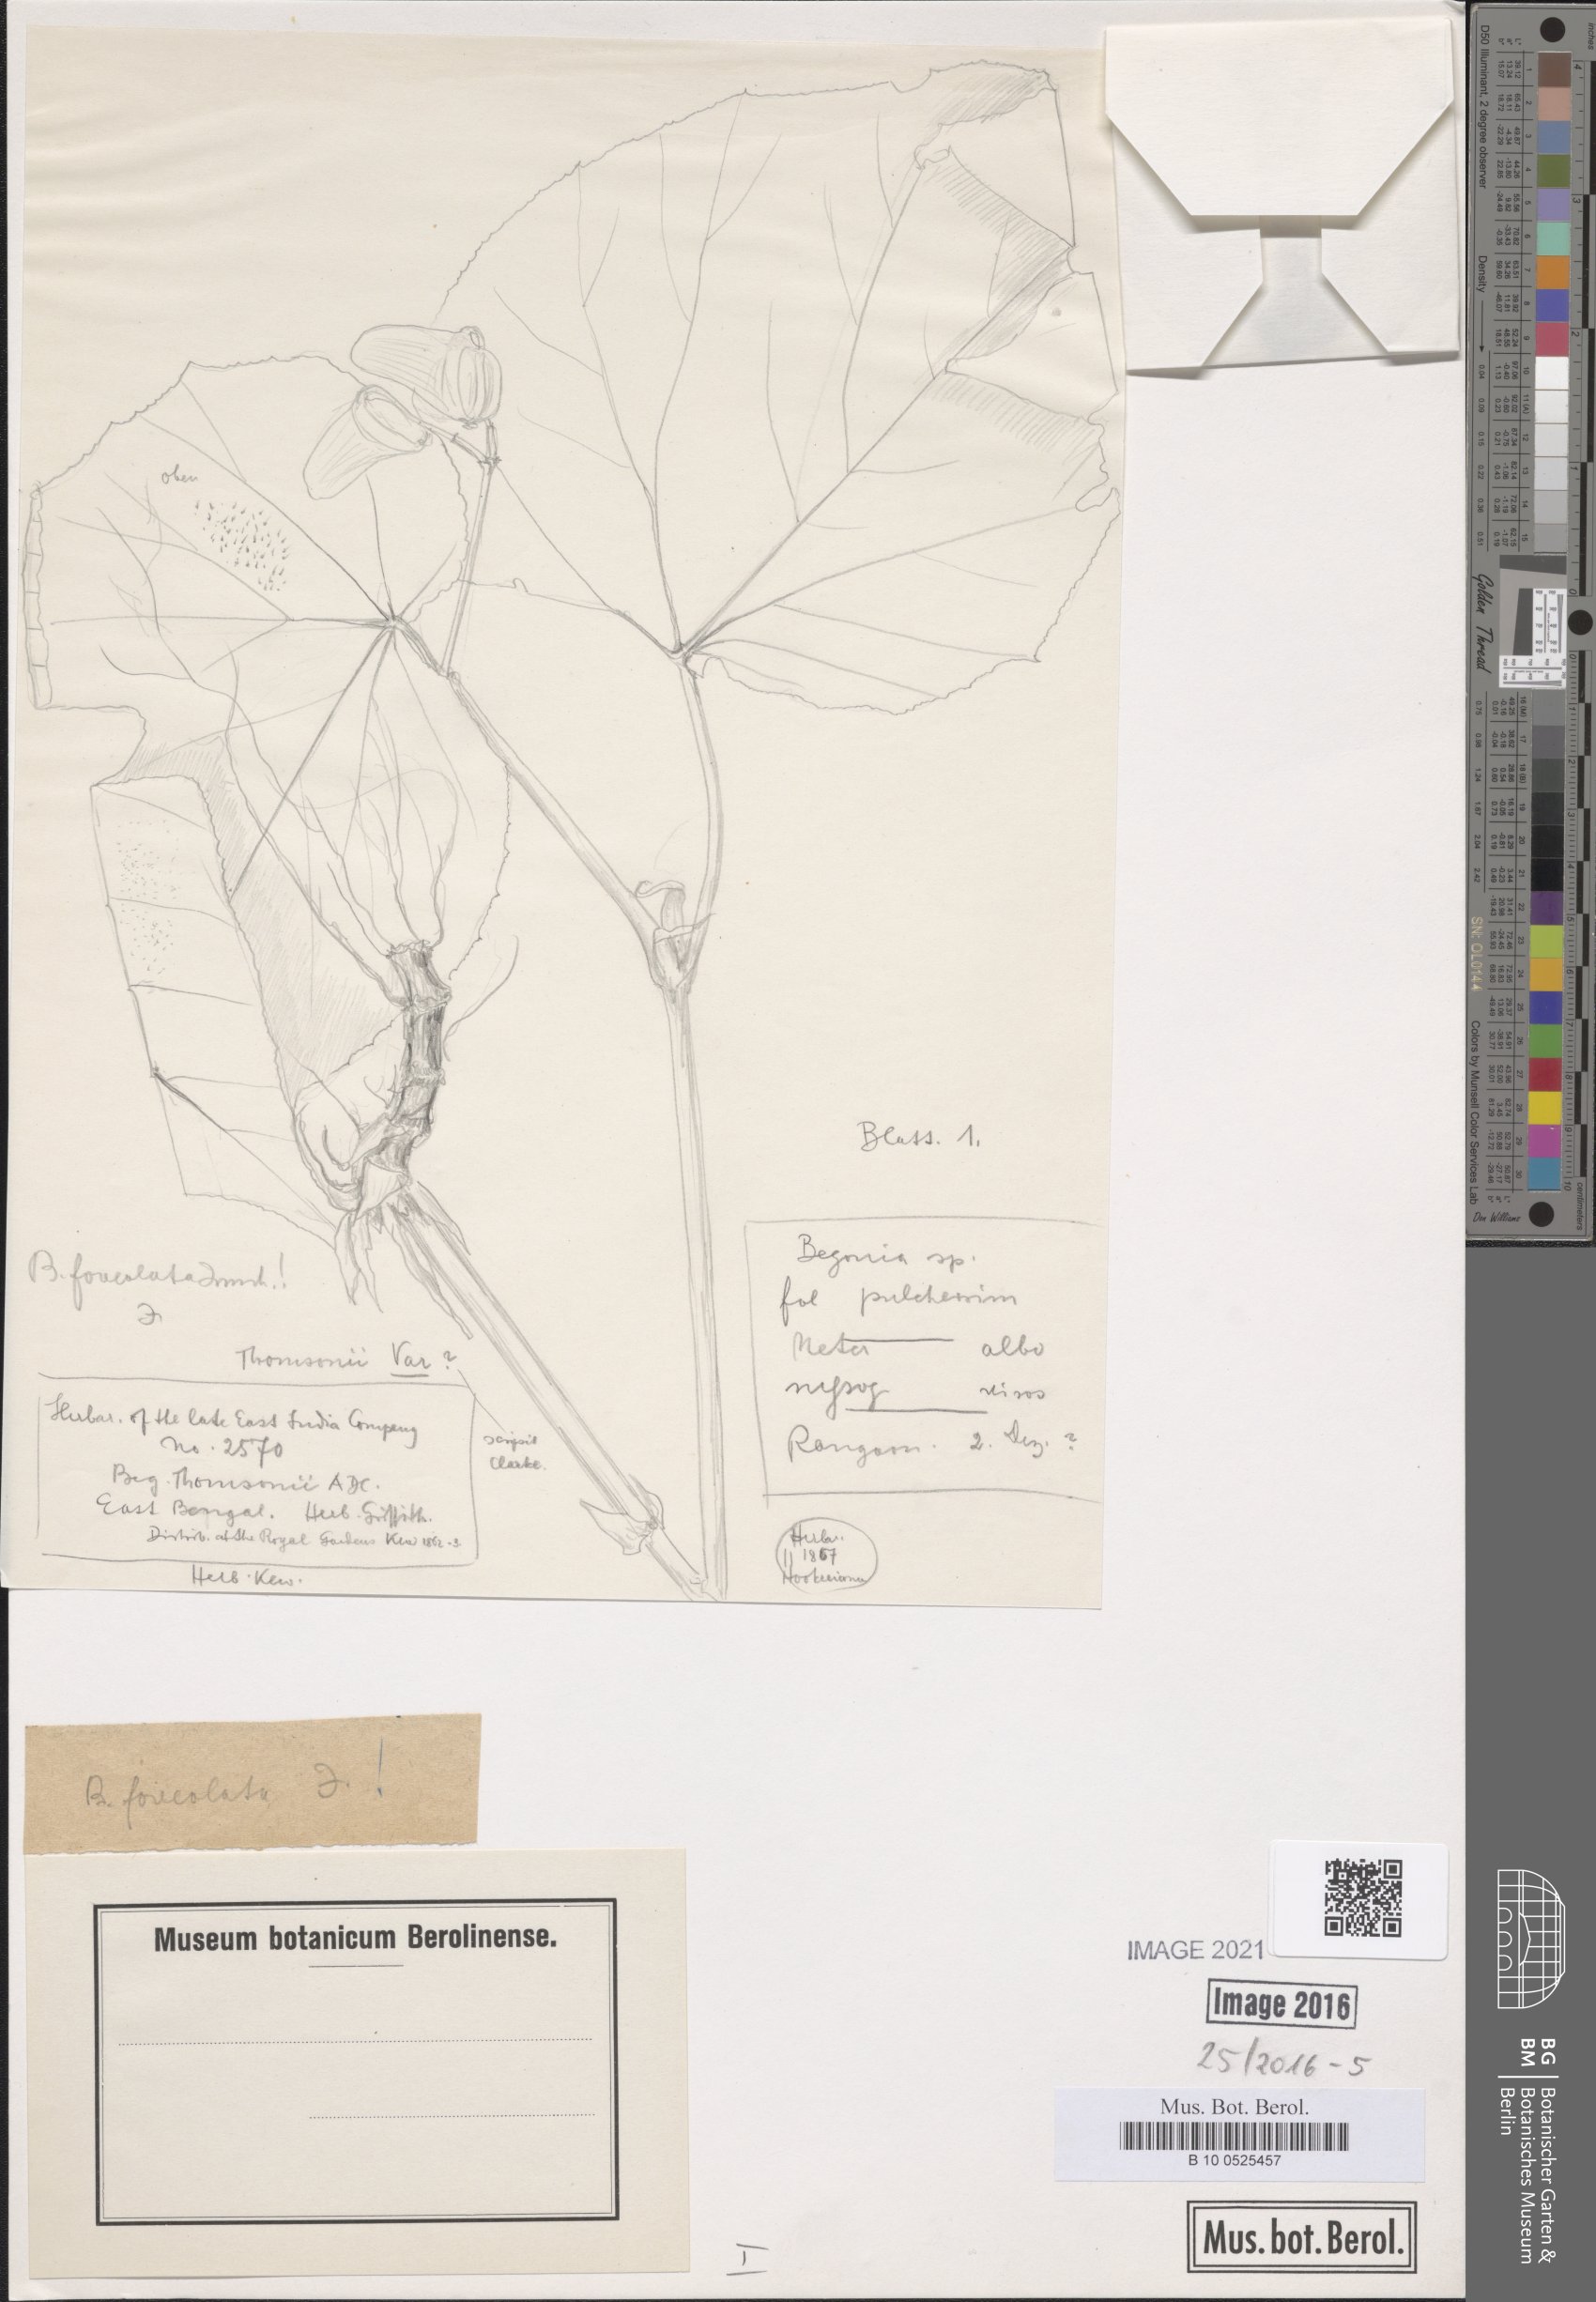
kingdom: Plantae
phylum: Tracheophyta
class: Magnoliopsida
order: Cucurbitales
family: Begoniaceae
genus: Begonia
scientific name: Begonia foveolata
